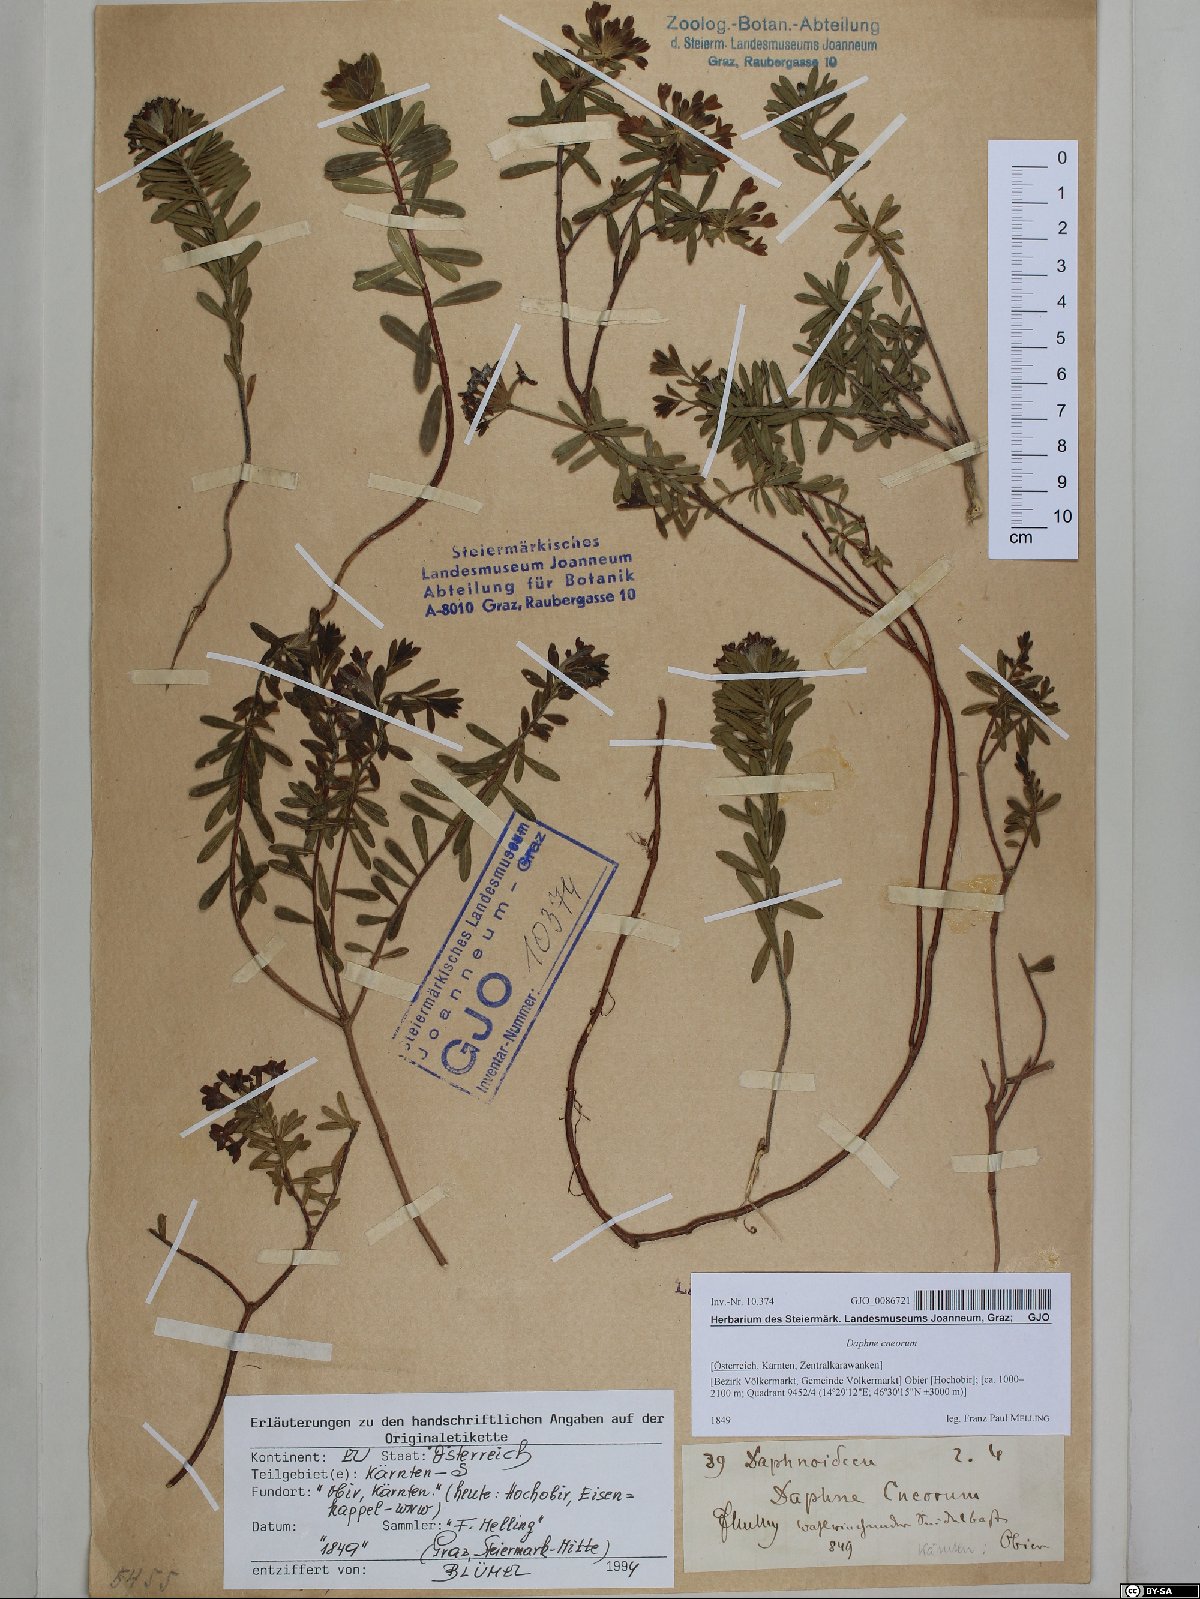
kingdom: Plantae
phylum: Tracheophyta
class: Magnoliopsida
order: Malvales
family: Thymelaeaceae
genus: Daphne
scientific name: Daphne cneorum
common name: Garland-flower
